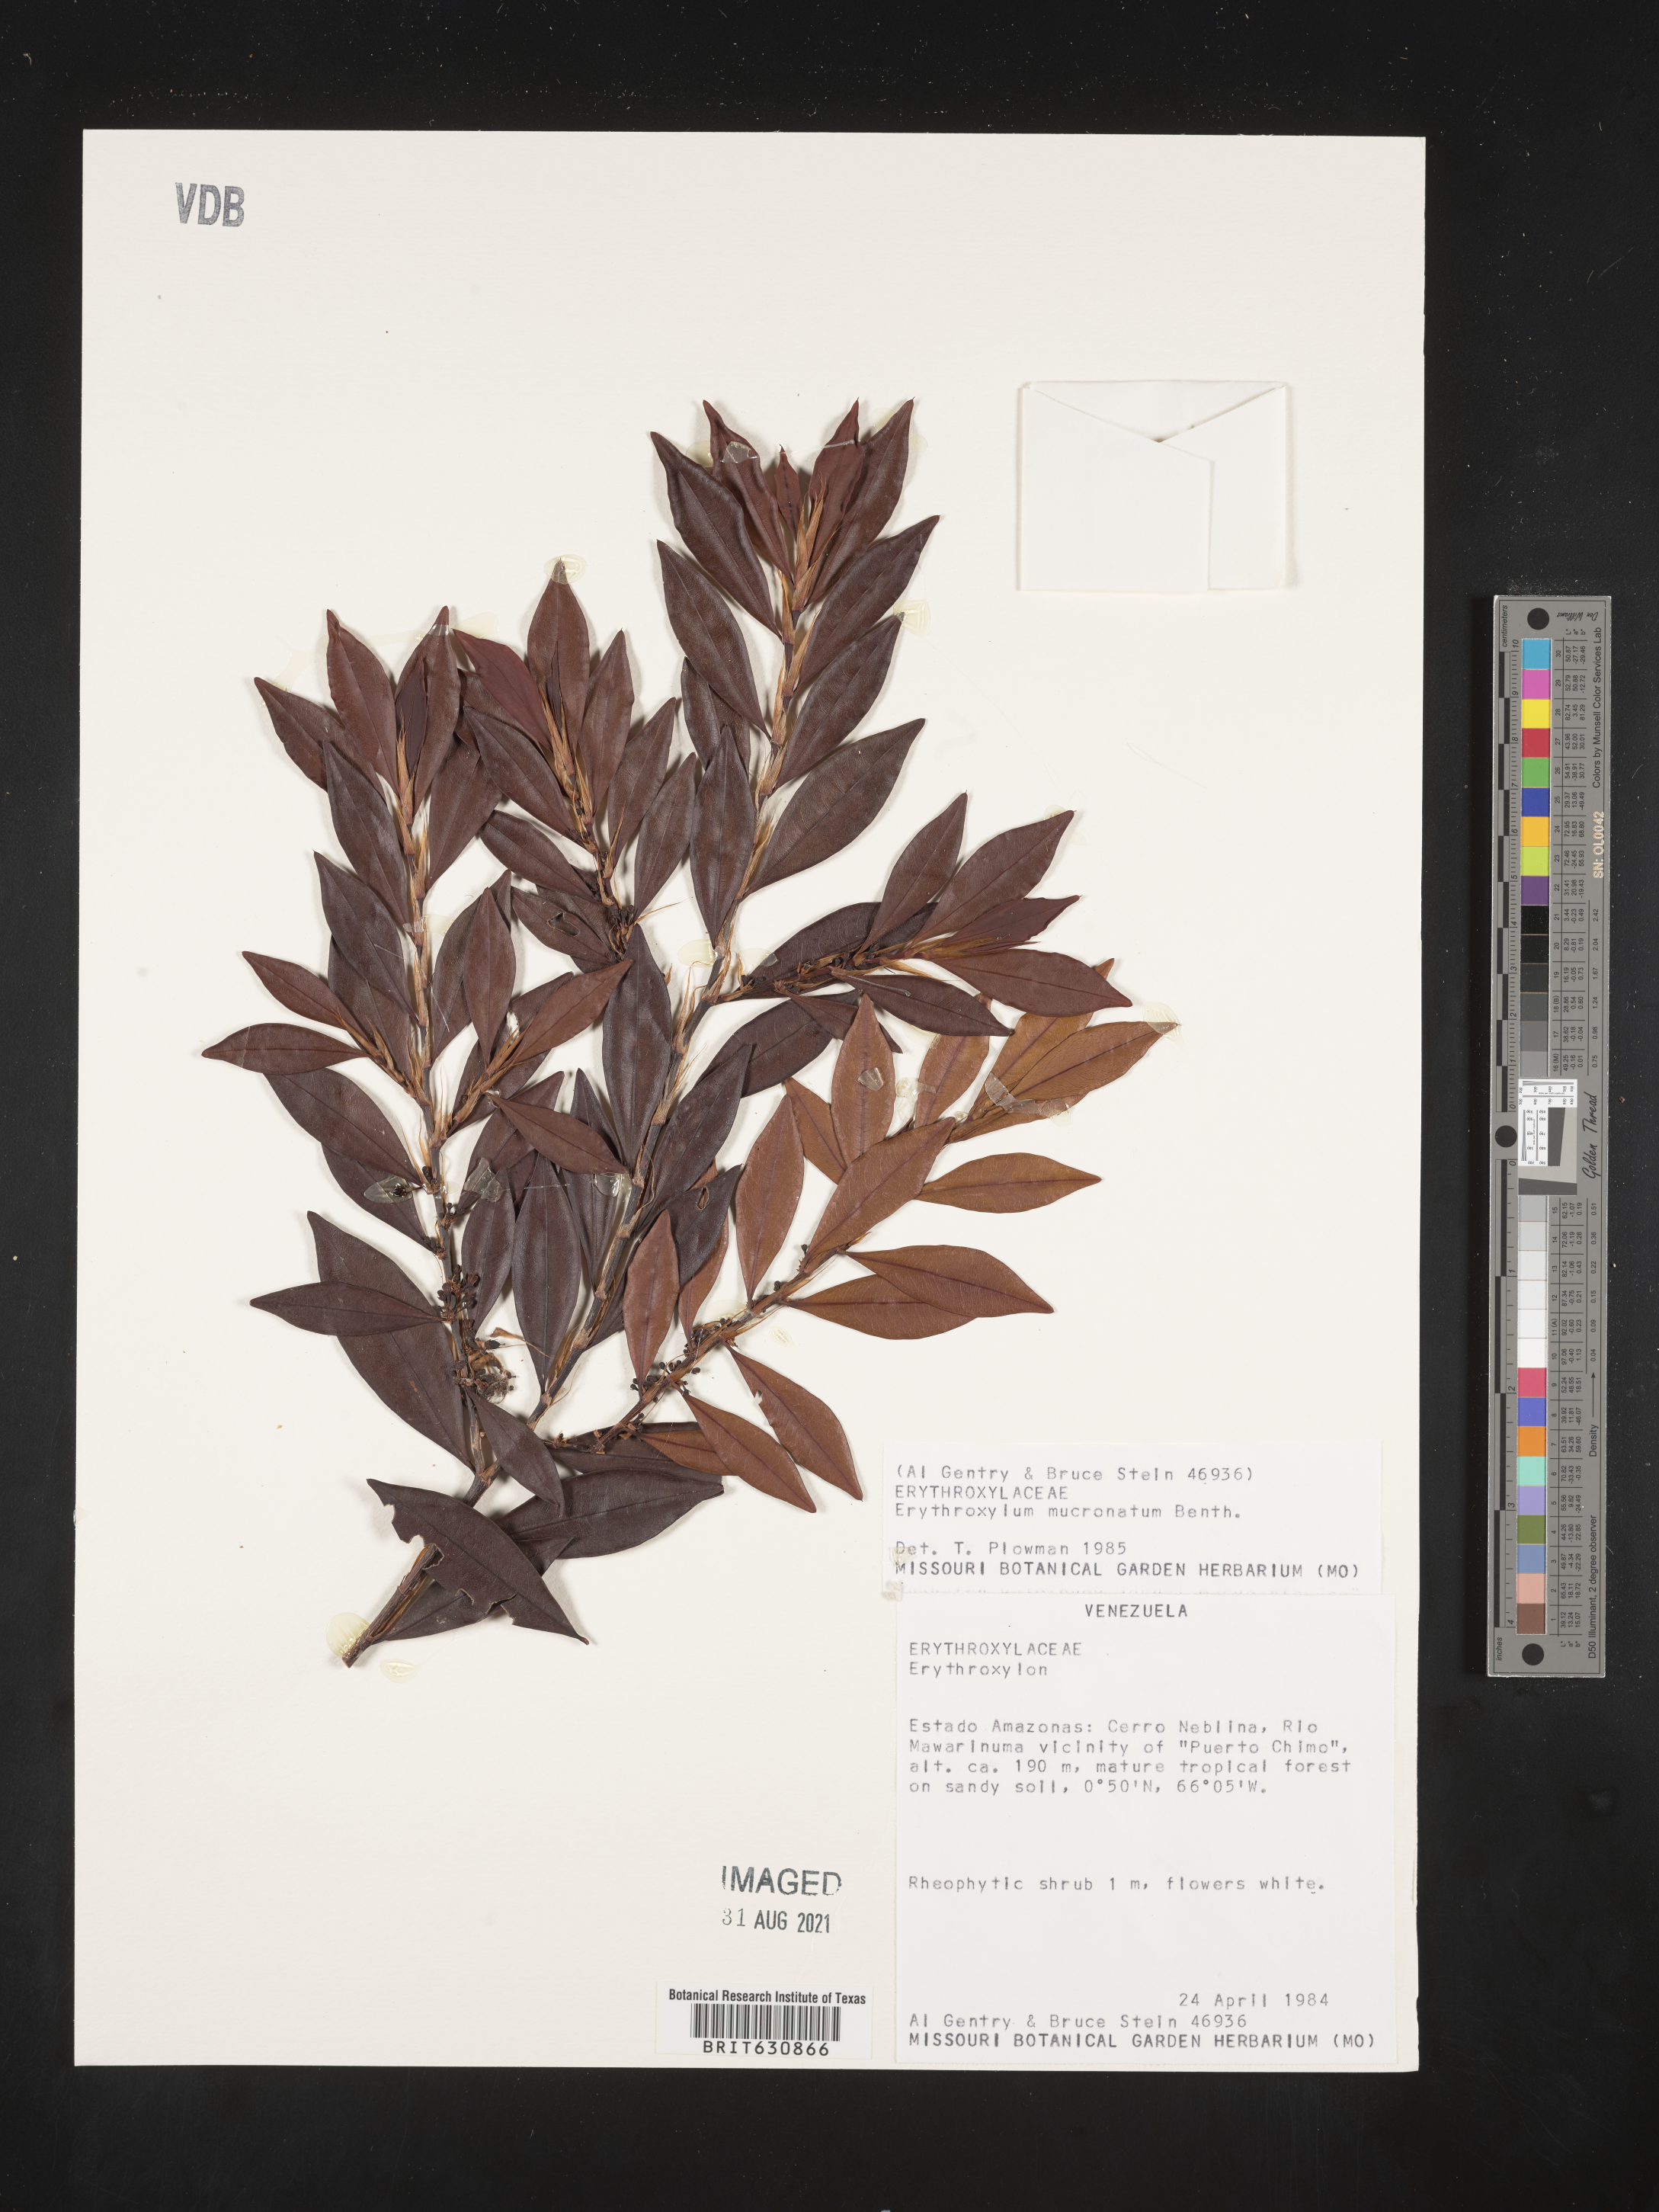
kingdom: Plantae
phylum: Tracheophyta
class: Magnoliopsida
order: Malpighiales
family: Erythroxylaceae
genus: Erythroxylum
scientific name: Erythroxylum
